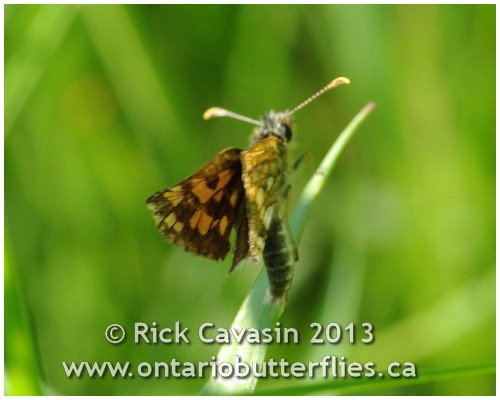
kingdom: Animalia
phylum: Arthropoda
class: Insecta
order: Lepidoptera
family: Hesperiidae
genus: Carterocephalus
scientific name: Carterocephalus palaemon
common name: Chequered Skipper
